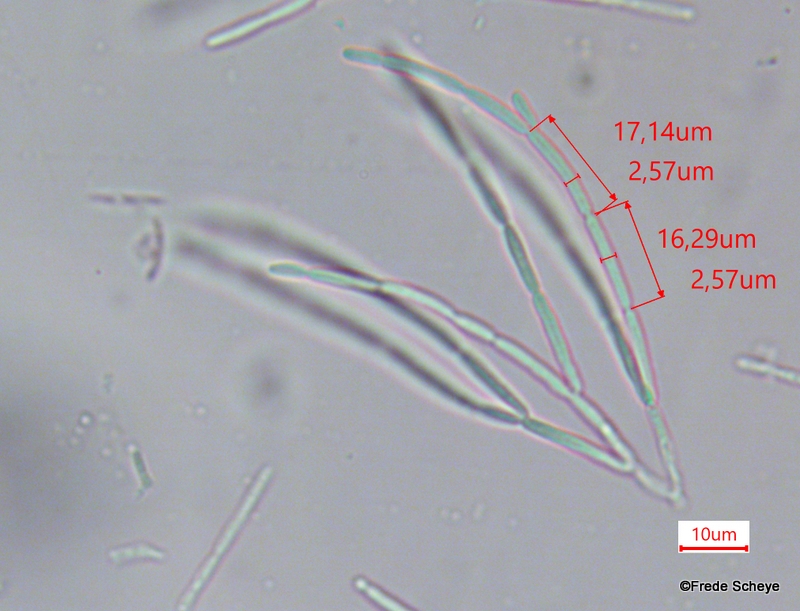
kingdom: Fungi
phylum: Ascomycota
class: Leotiomycetes
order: Helotiales
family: Calloriaceae
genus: Calloria
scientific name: Calloria urticae
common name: nælde-orangeskive
